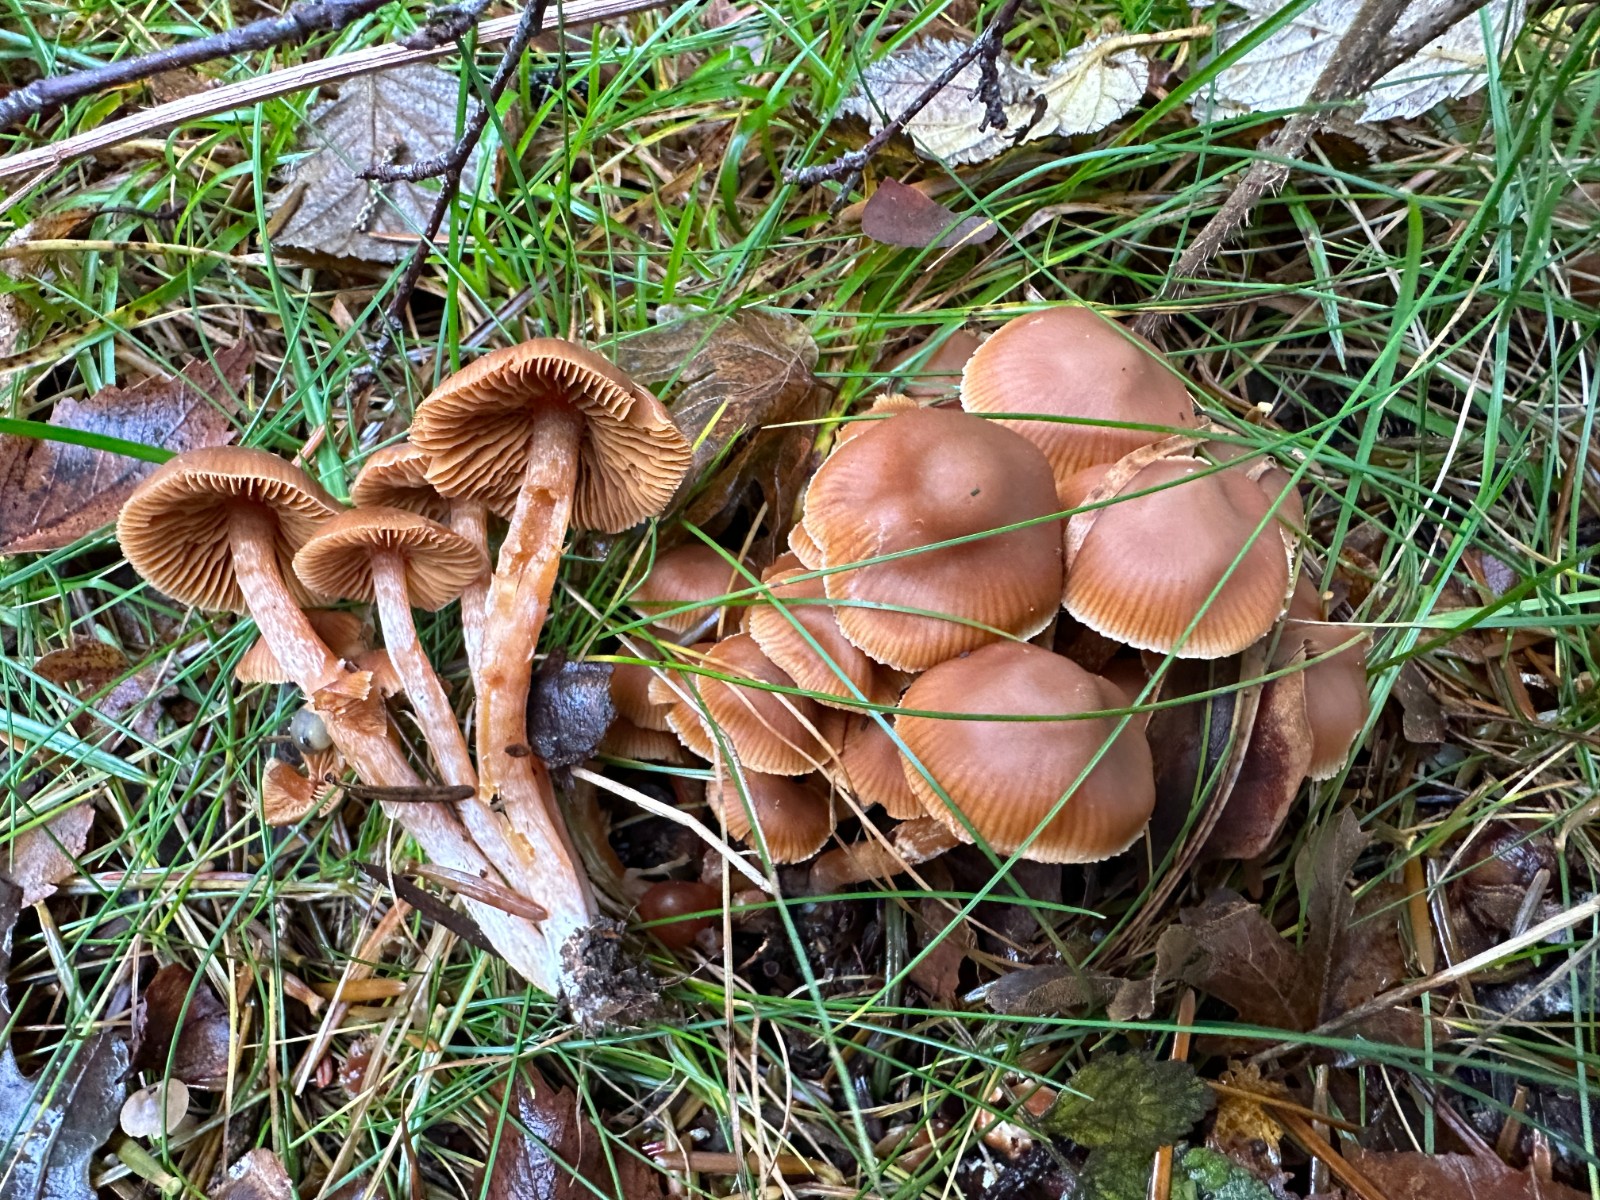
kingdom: Fungi
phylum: Basidiomycota
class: Agaricomycetes
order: Agaricales
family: Cortinariaceae
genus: Cortinarius
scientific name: Cortinarius
